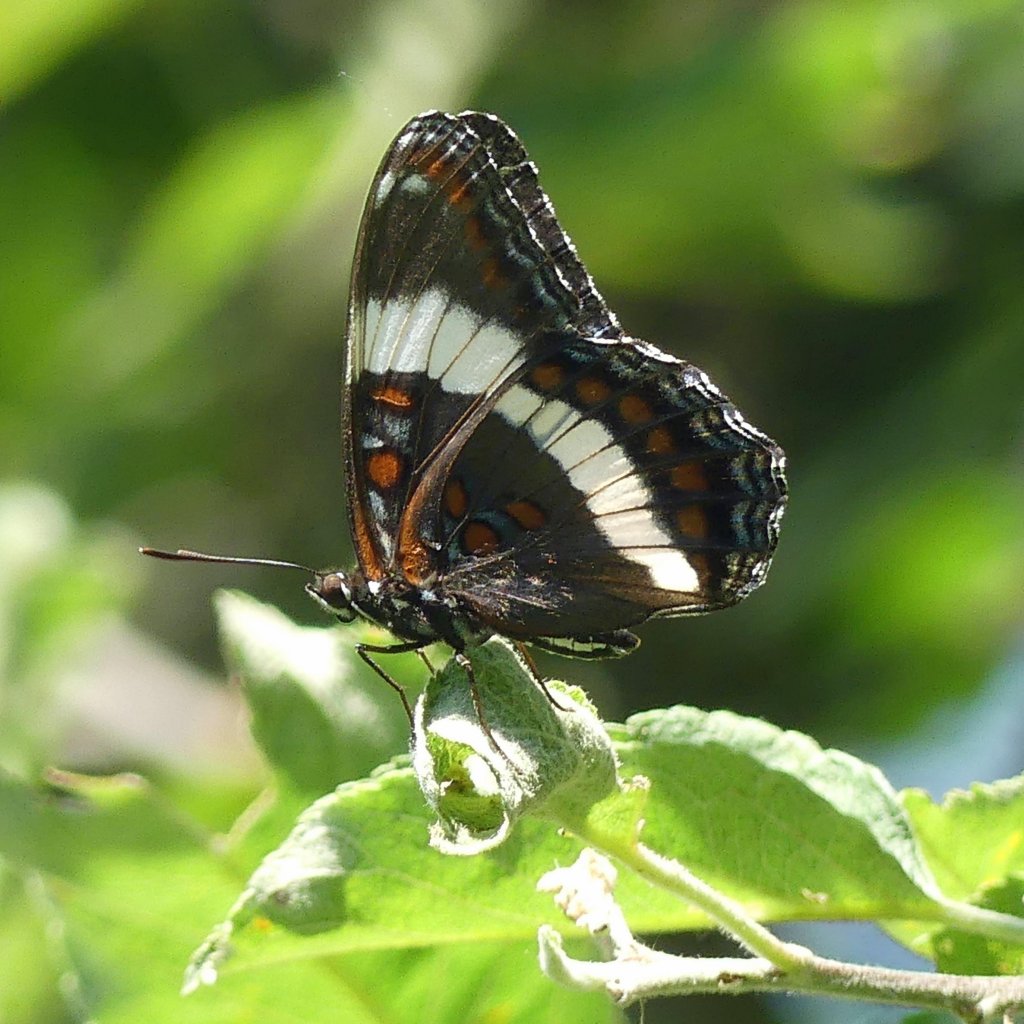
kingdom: Animalia
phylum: Arthropoda
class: Insecta
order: Lepidoptera
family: Nymphalidae
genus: Limenitis
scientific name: Limenitis arthemis
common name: Red-spotted Admiral
